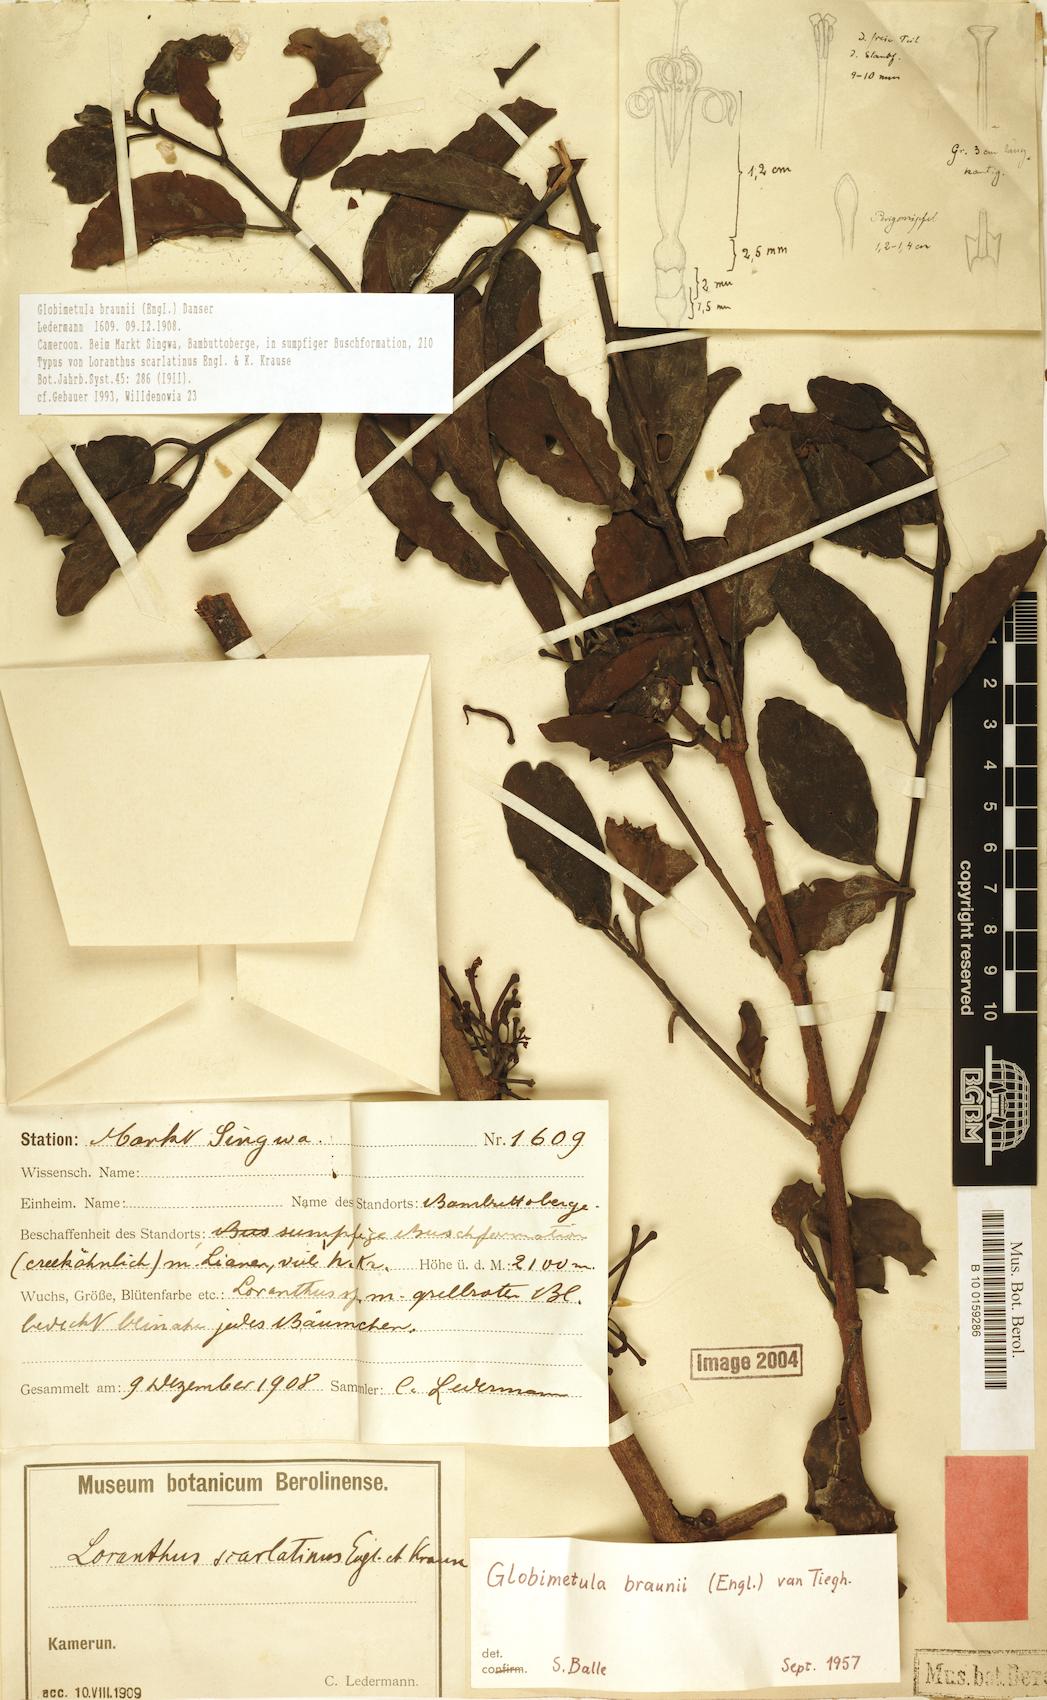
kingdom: Plantae
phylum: Tracheophyta
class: Magnoliopsida
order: Santalales
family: Loranthaceae
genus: Globimetula
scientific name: Globimetula braunii
